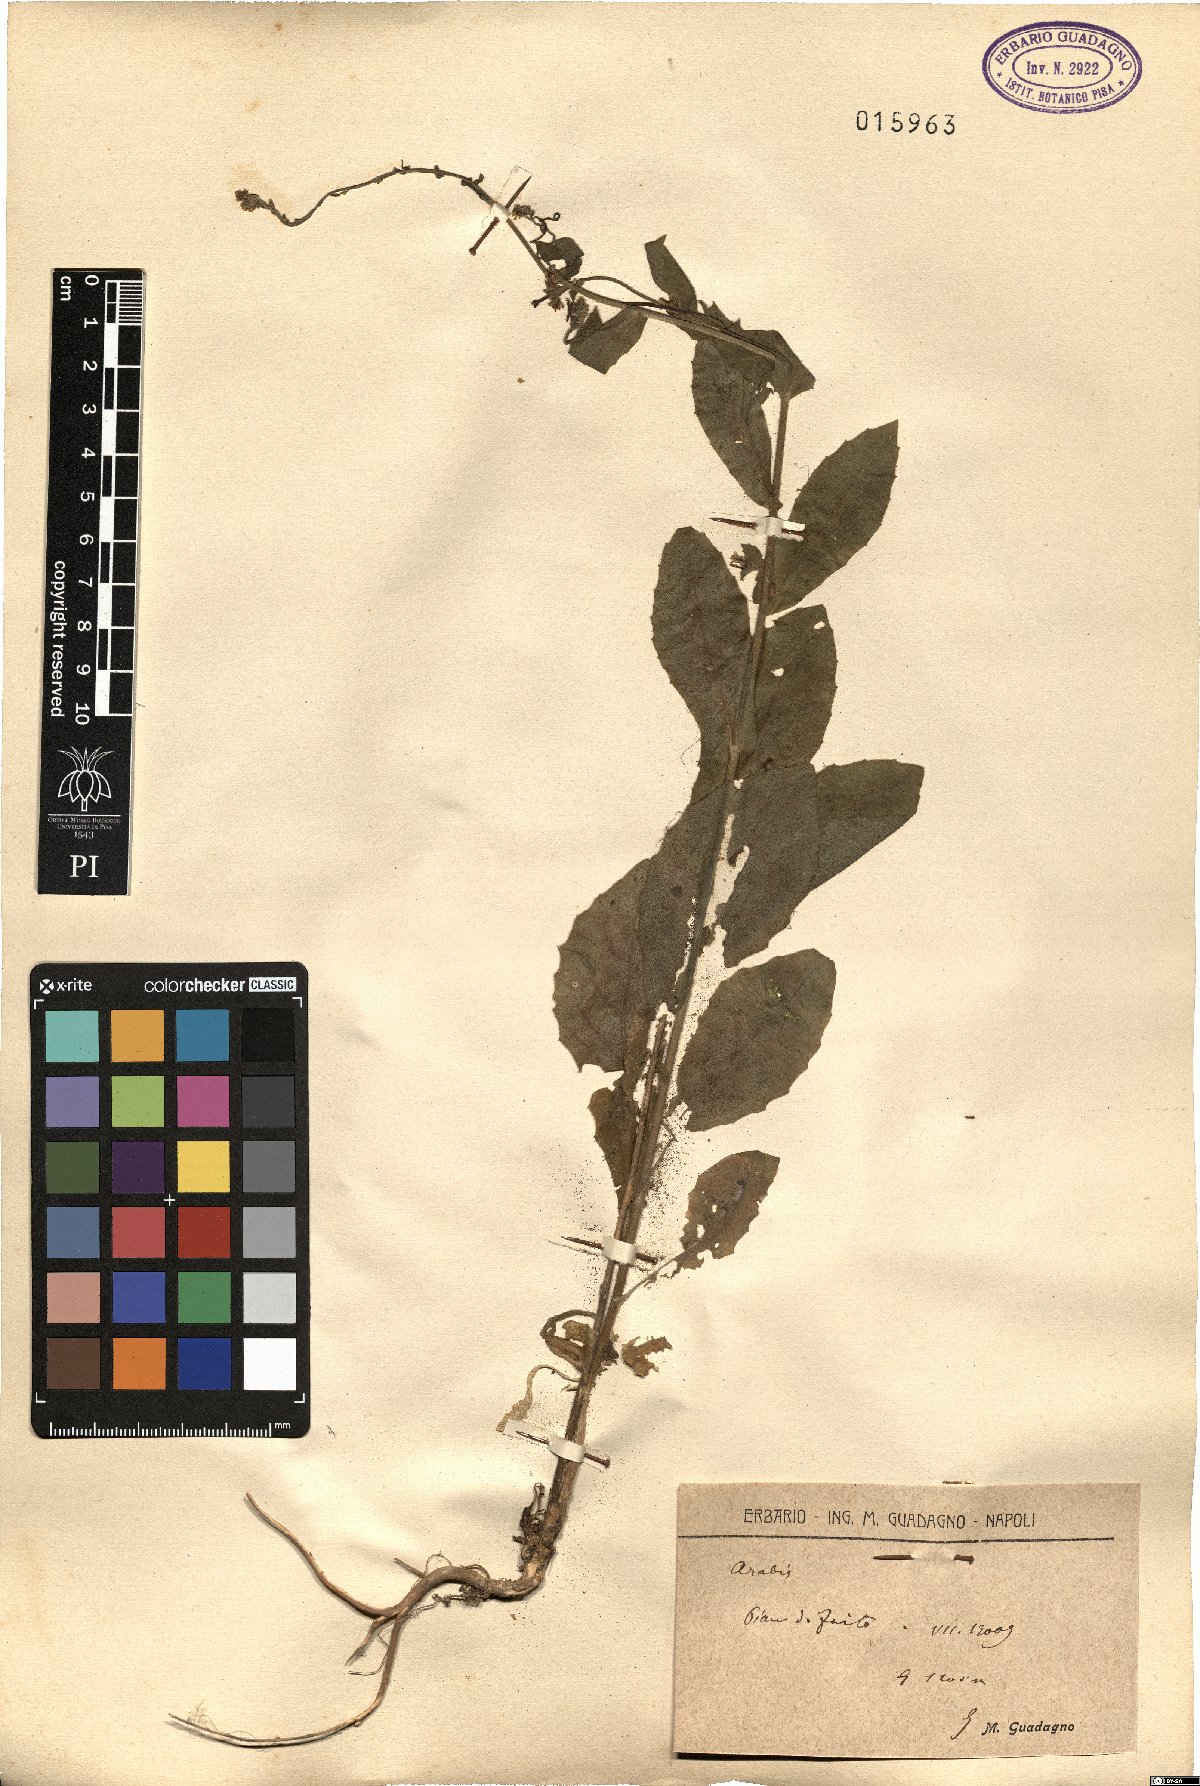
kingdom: Plantae
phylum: Tracheophyta
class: Magnoliopsida
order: Brassicales
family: Brassicaceae
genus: Arabis
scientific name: Arabis
